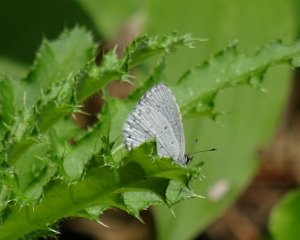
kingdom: Animalia
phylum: Arthropoda
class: Insecta
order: Lepidoptera
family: Lycaenidae
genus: Cyaniris
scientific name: Cyaniris neglecta
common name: Summer Azure
